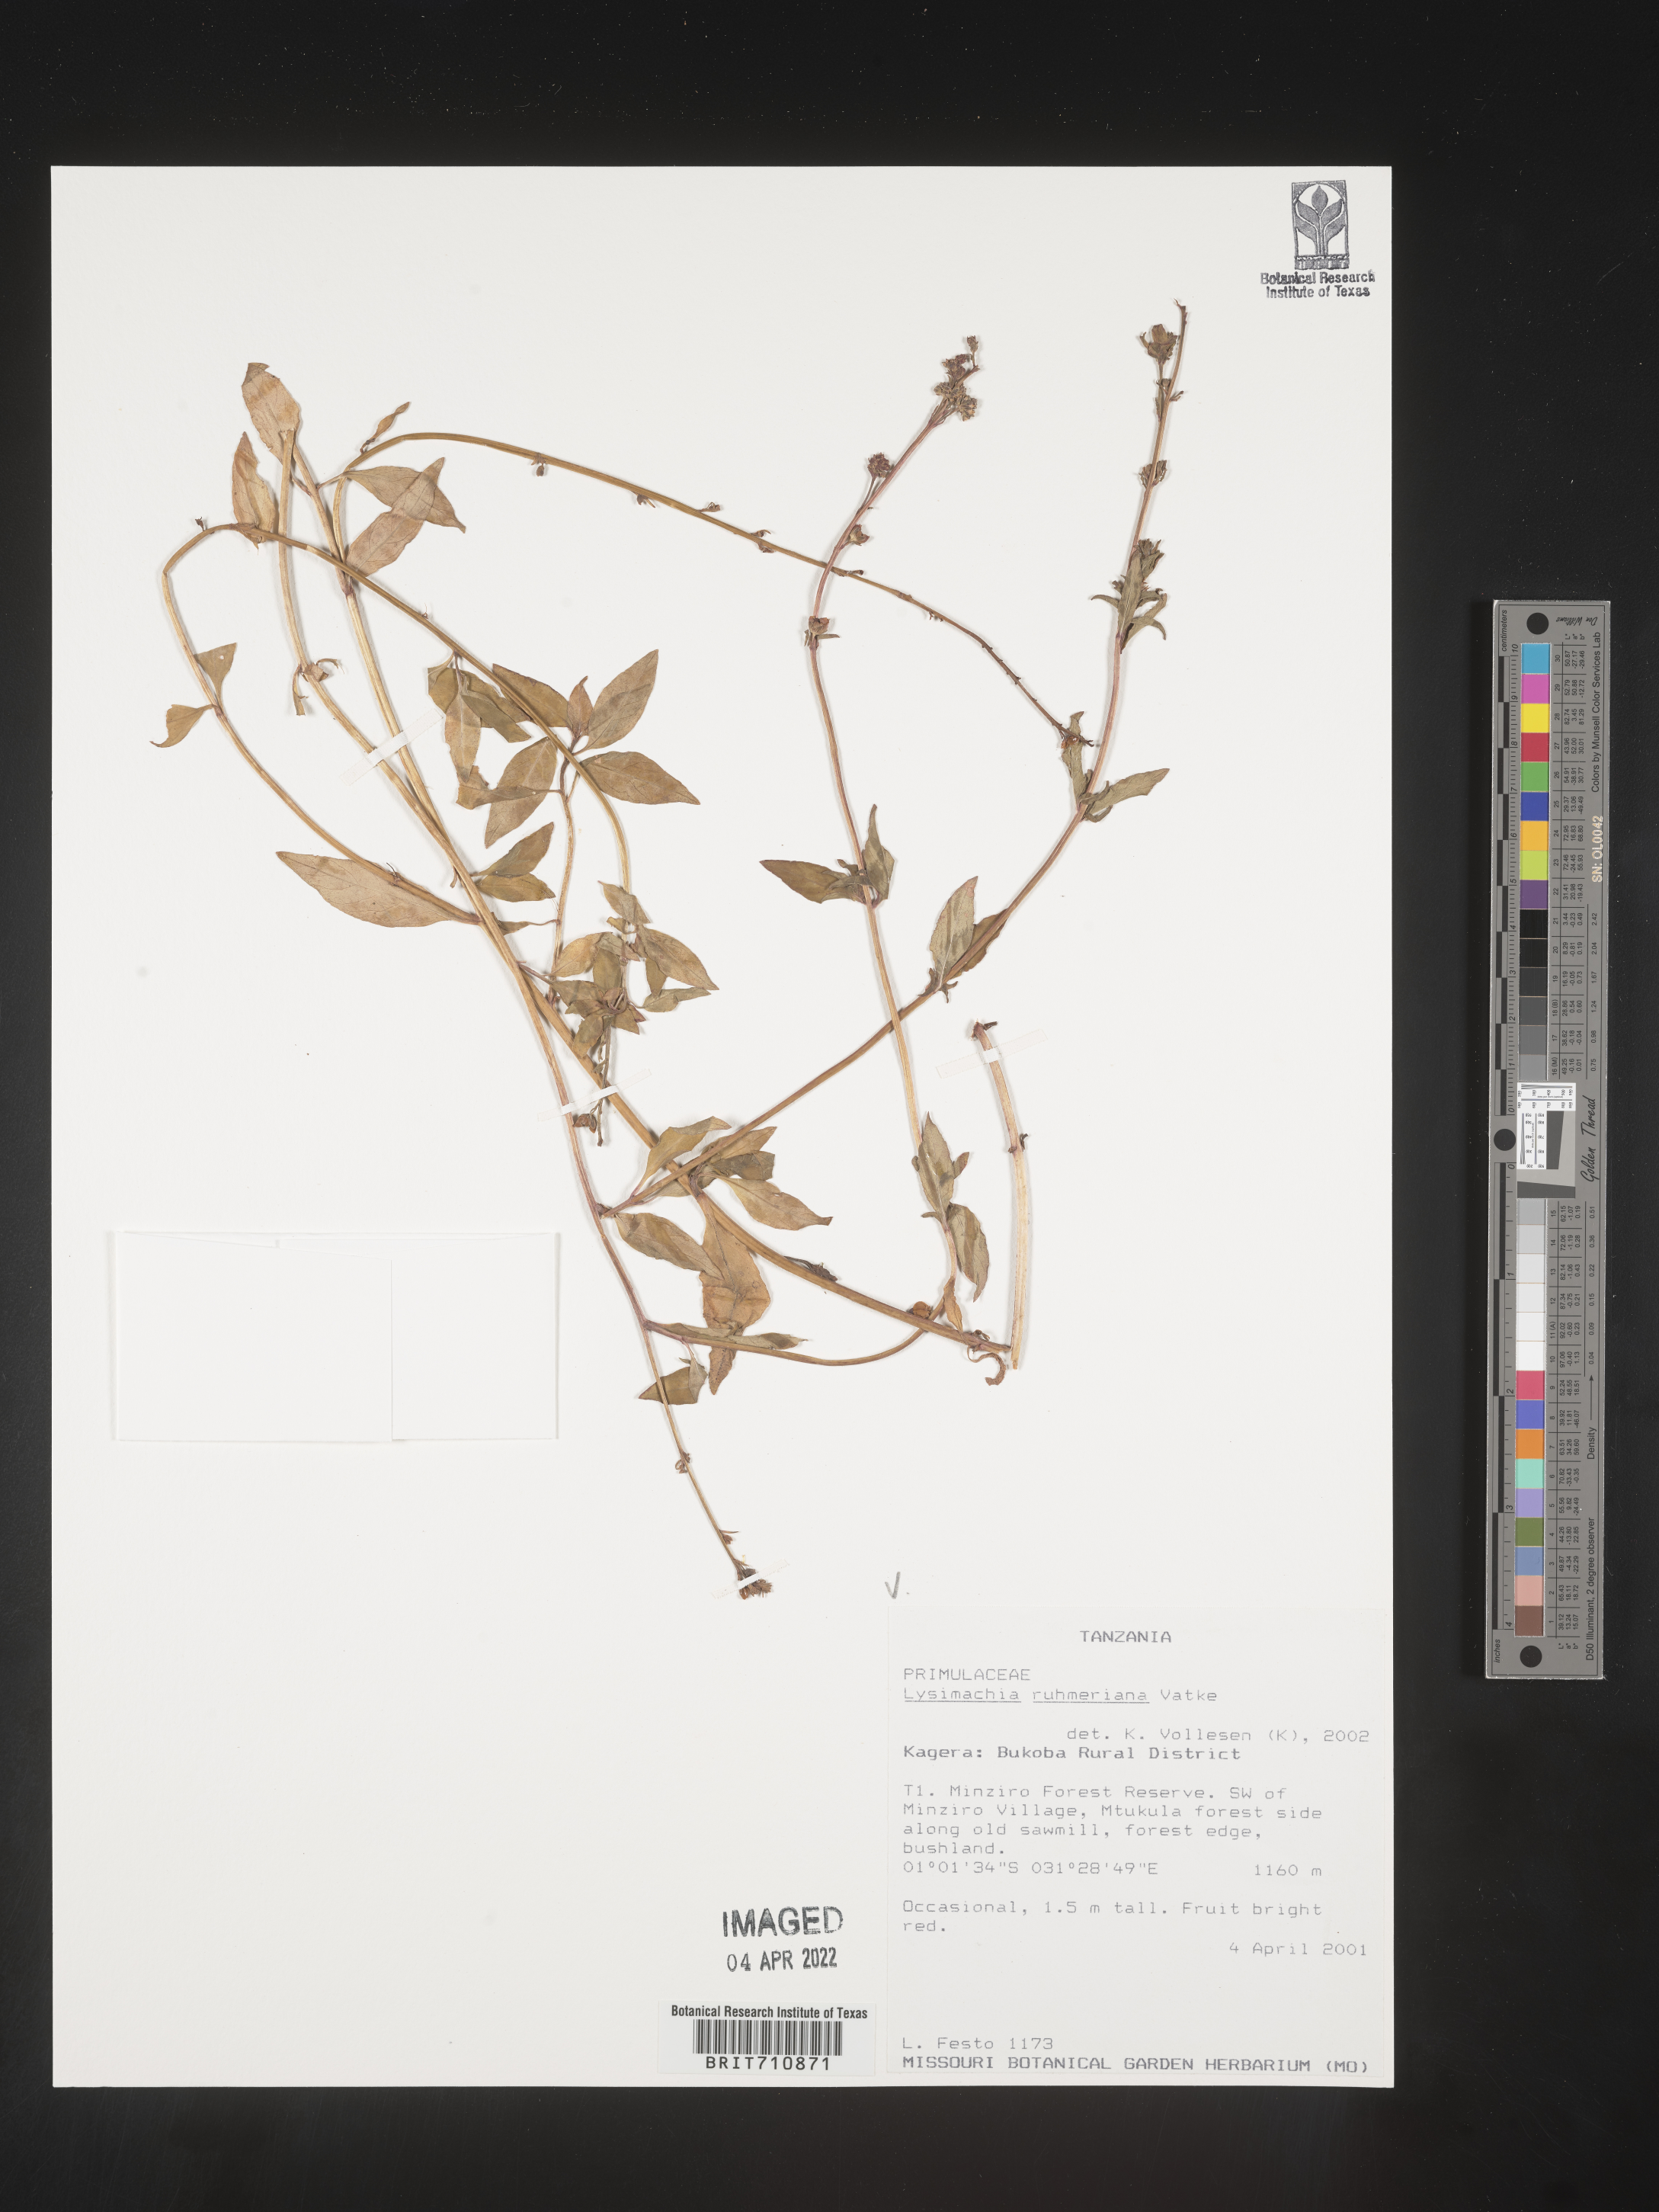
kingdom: Plantae
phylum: Tracheophyta
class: Magnoliopsida
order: Ericales
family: Primulaceae
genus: Lysimachia
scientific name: Lysimachia
